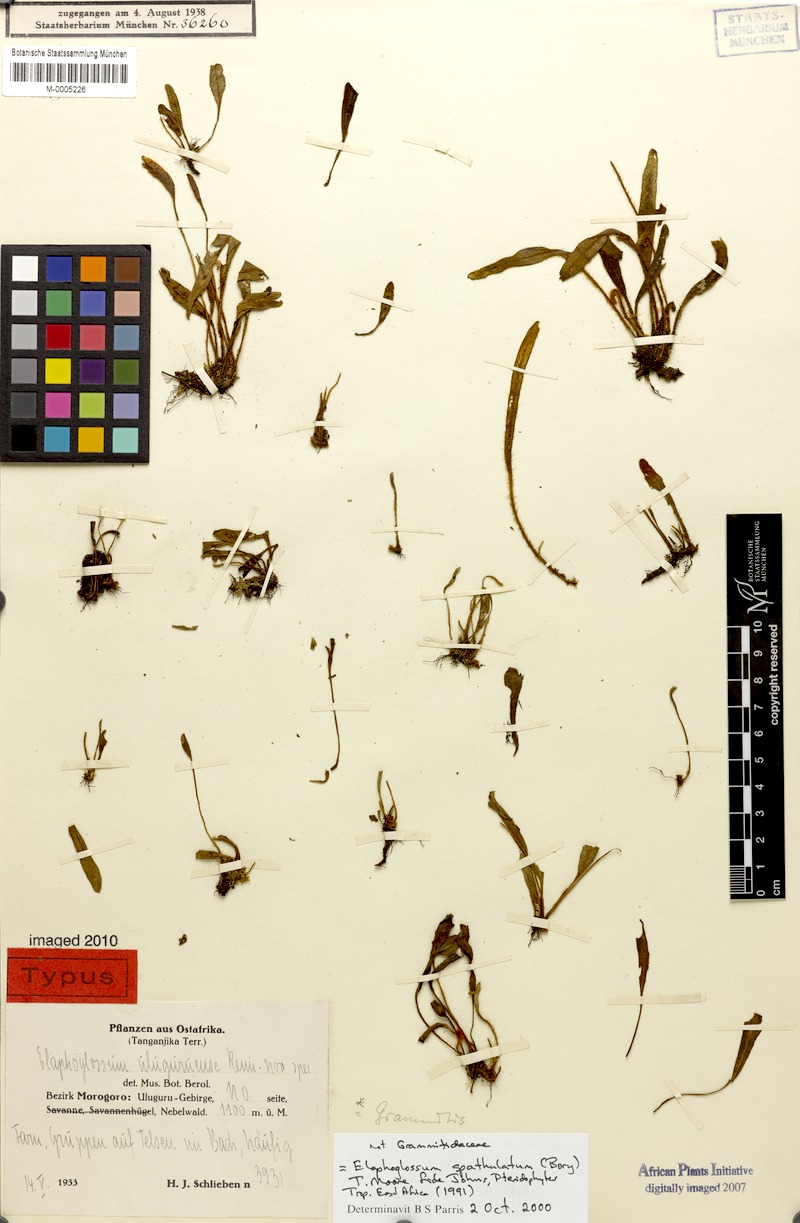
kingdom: Plantae
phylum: Tracheophyta
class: Polypodiopsida
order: Polypodiales
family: Dryopteridaceae
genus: Elaphoglossum
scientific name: Elaphoglossum spatulatum
